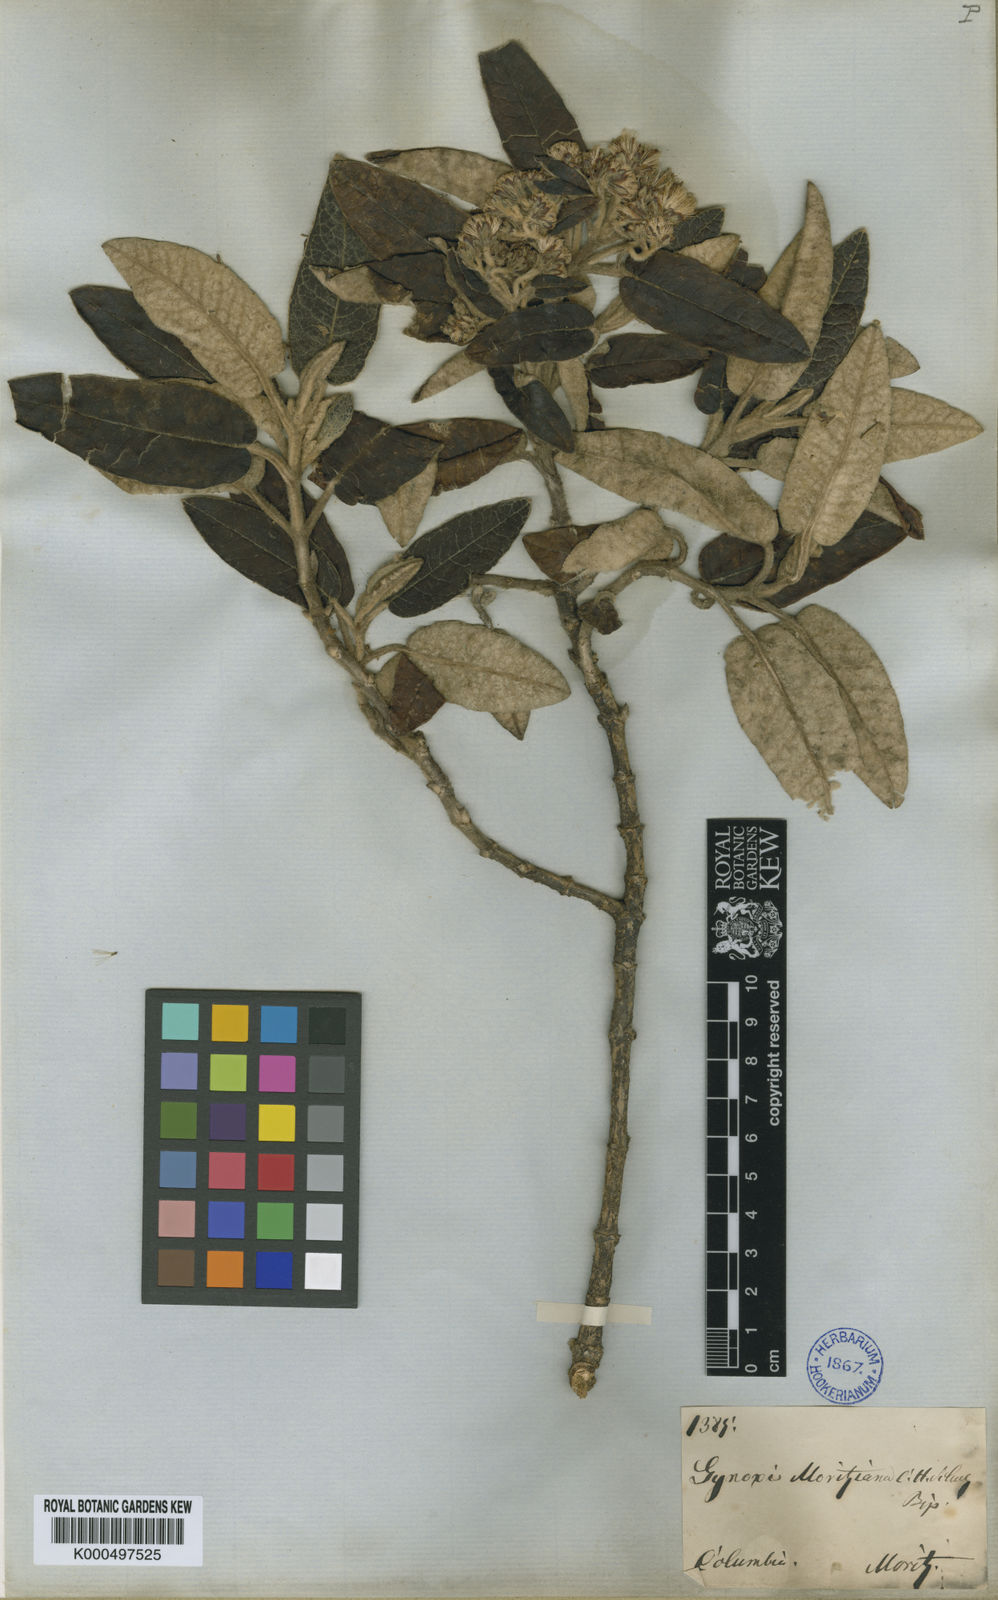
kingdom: Plantae
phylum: Tracheophyta
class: Magnoliopsida
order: Asterales
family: Asteraceae
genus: Gynoxys
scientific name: Gynoxys moritziana
